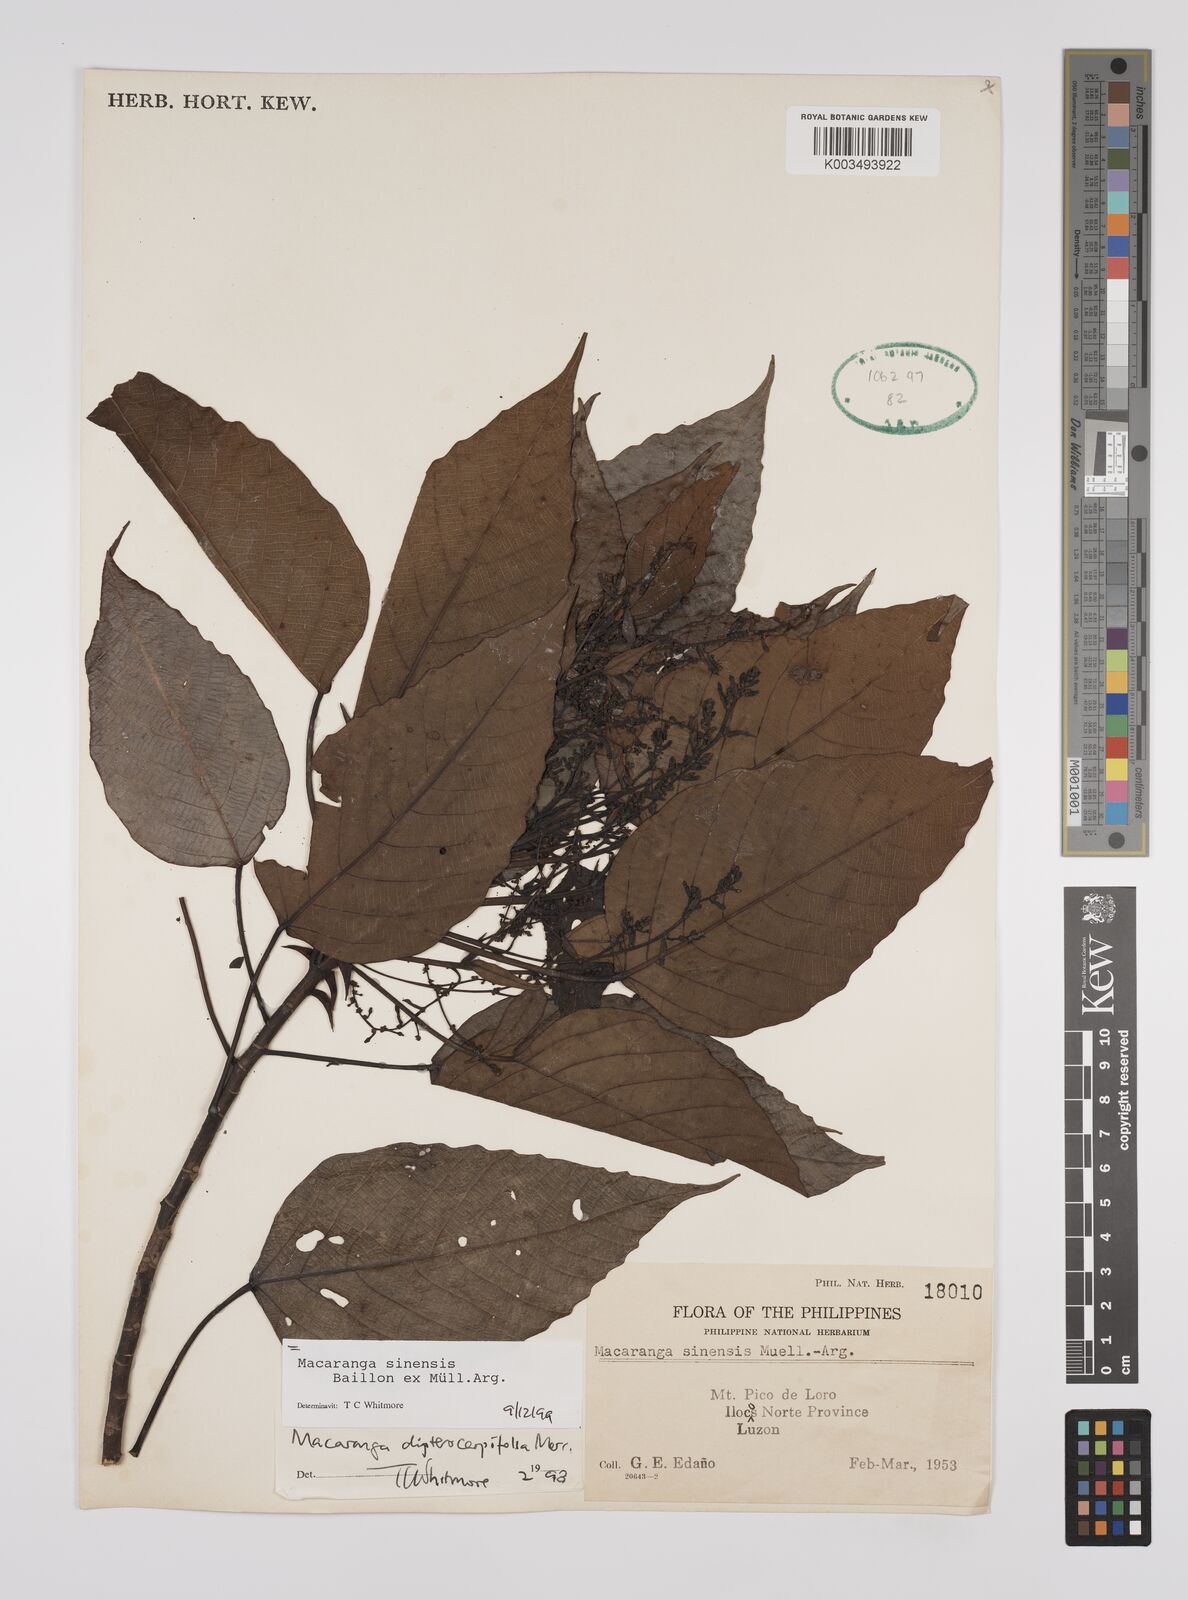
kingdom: Plantae
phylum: Tracheophyta
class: Magnoliopsida
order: Malpighiales
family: Euphorbiaceae
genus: Macaranga
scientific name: Macaranga sinensis
